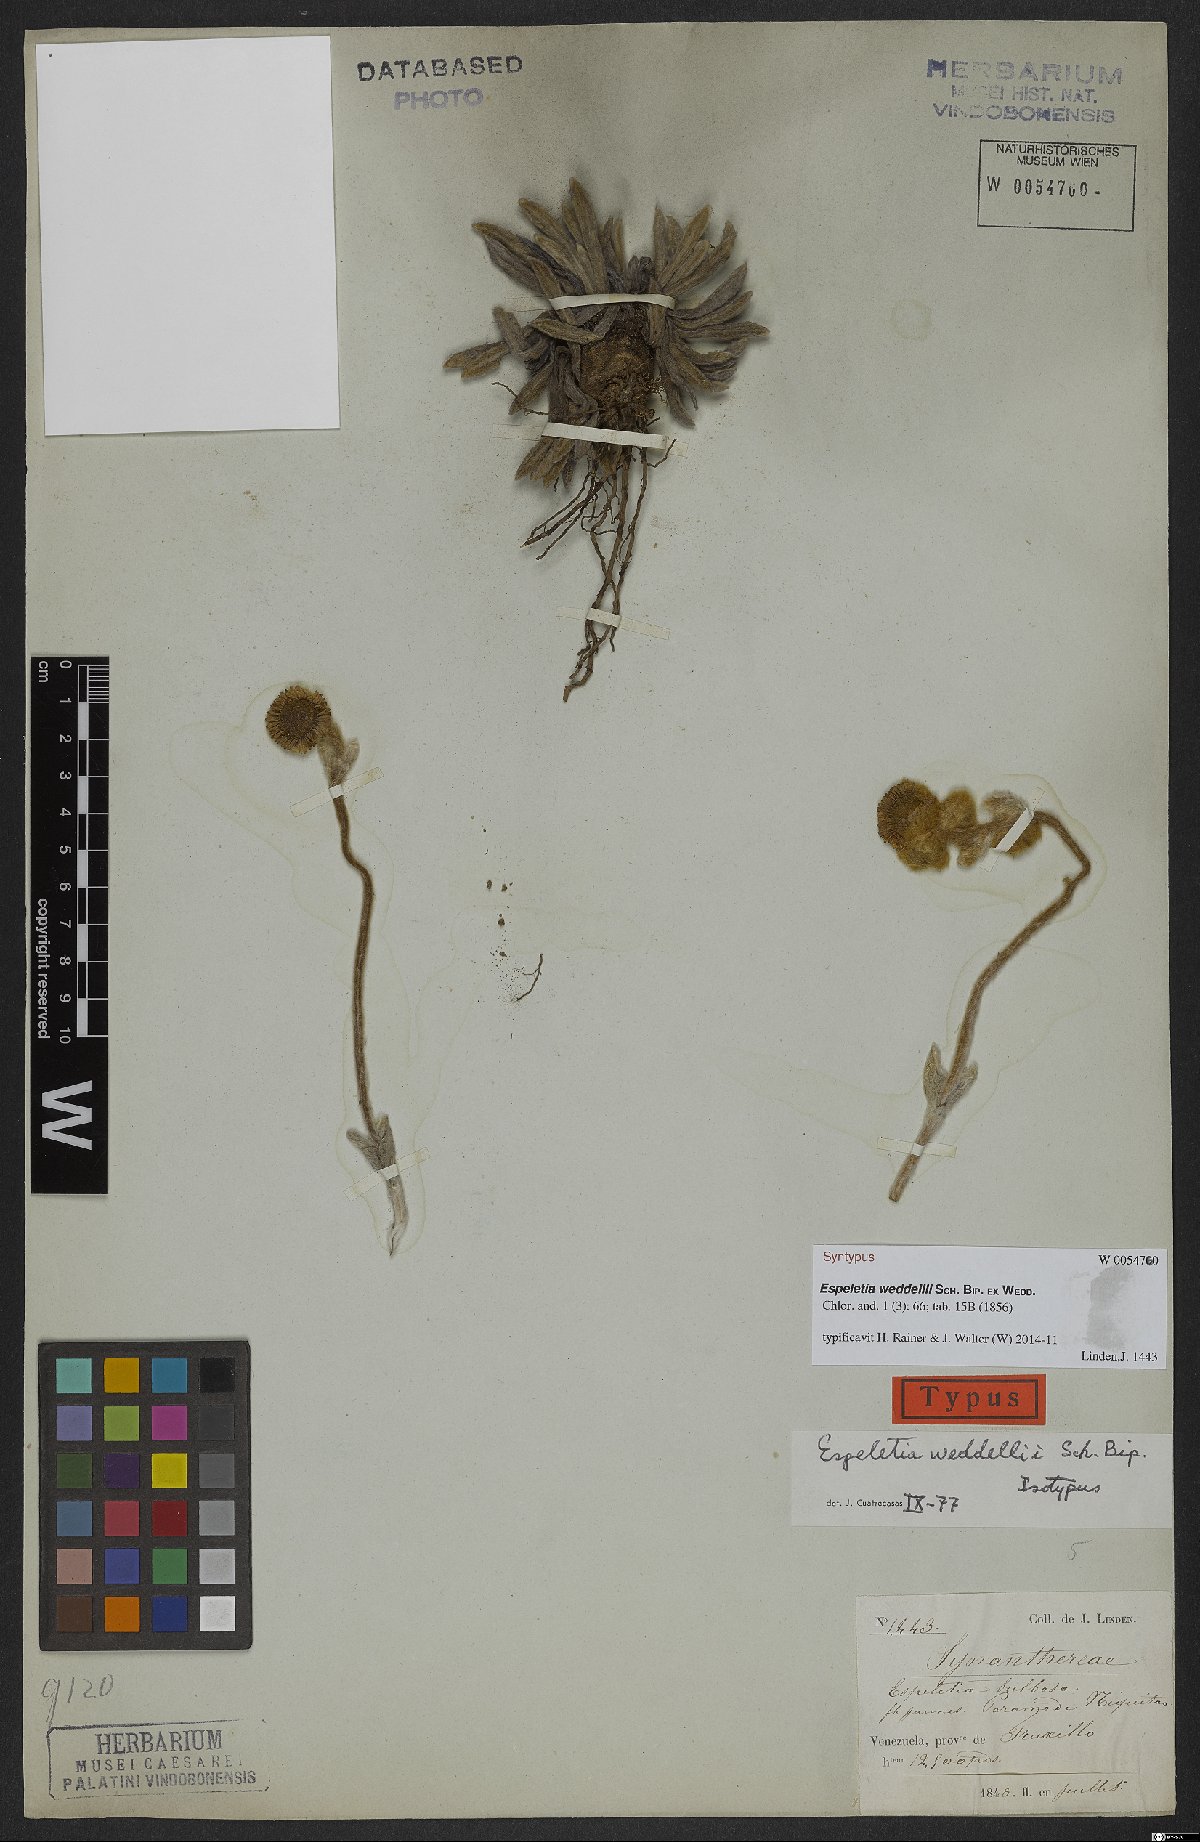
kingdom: Plantae
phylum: Tracheophyta
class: Magnoliopsida
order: Asterales
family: Asteraceae
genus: Espeletia
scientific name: Espeletia weddelii
